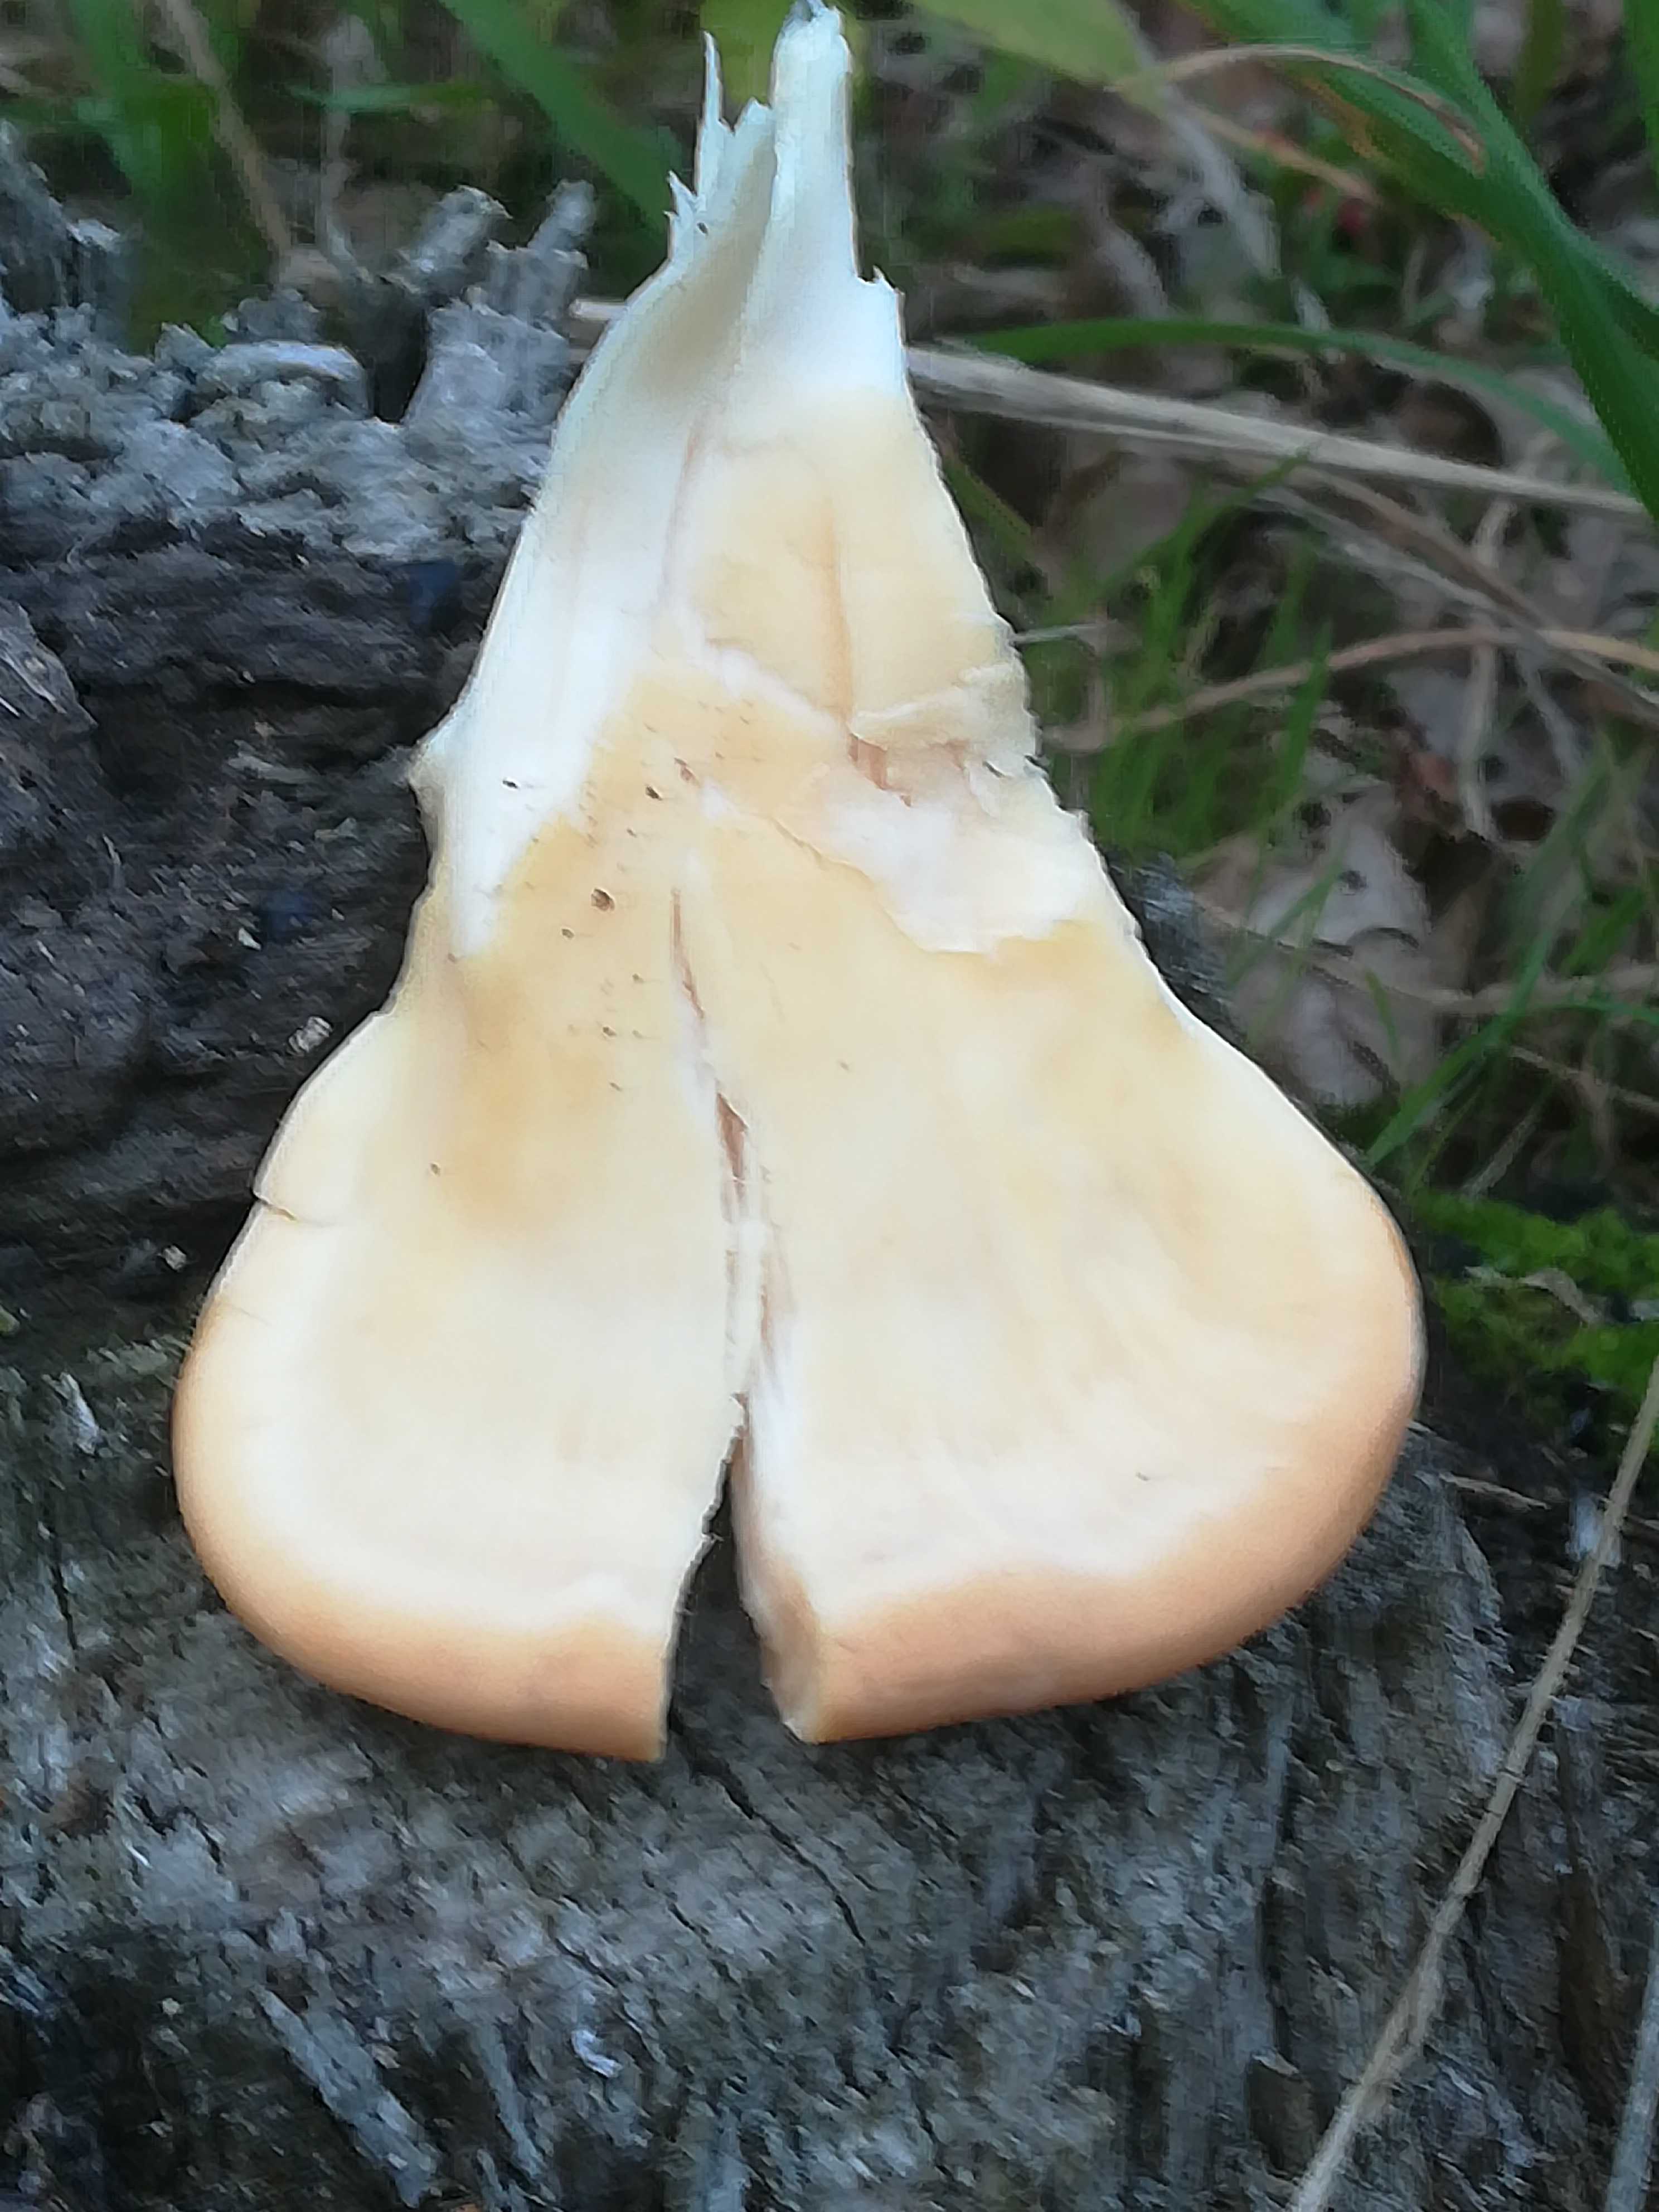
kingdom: Fungi
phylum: Basidiomycota
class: Agaricomycetes
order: Polyporales
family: Meripilaceae
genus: Meripilus
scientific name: Meripilus giganteus
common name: kæmpeporesvamp
